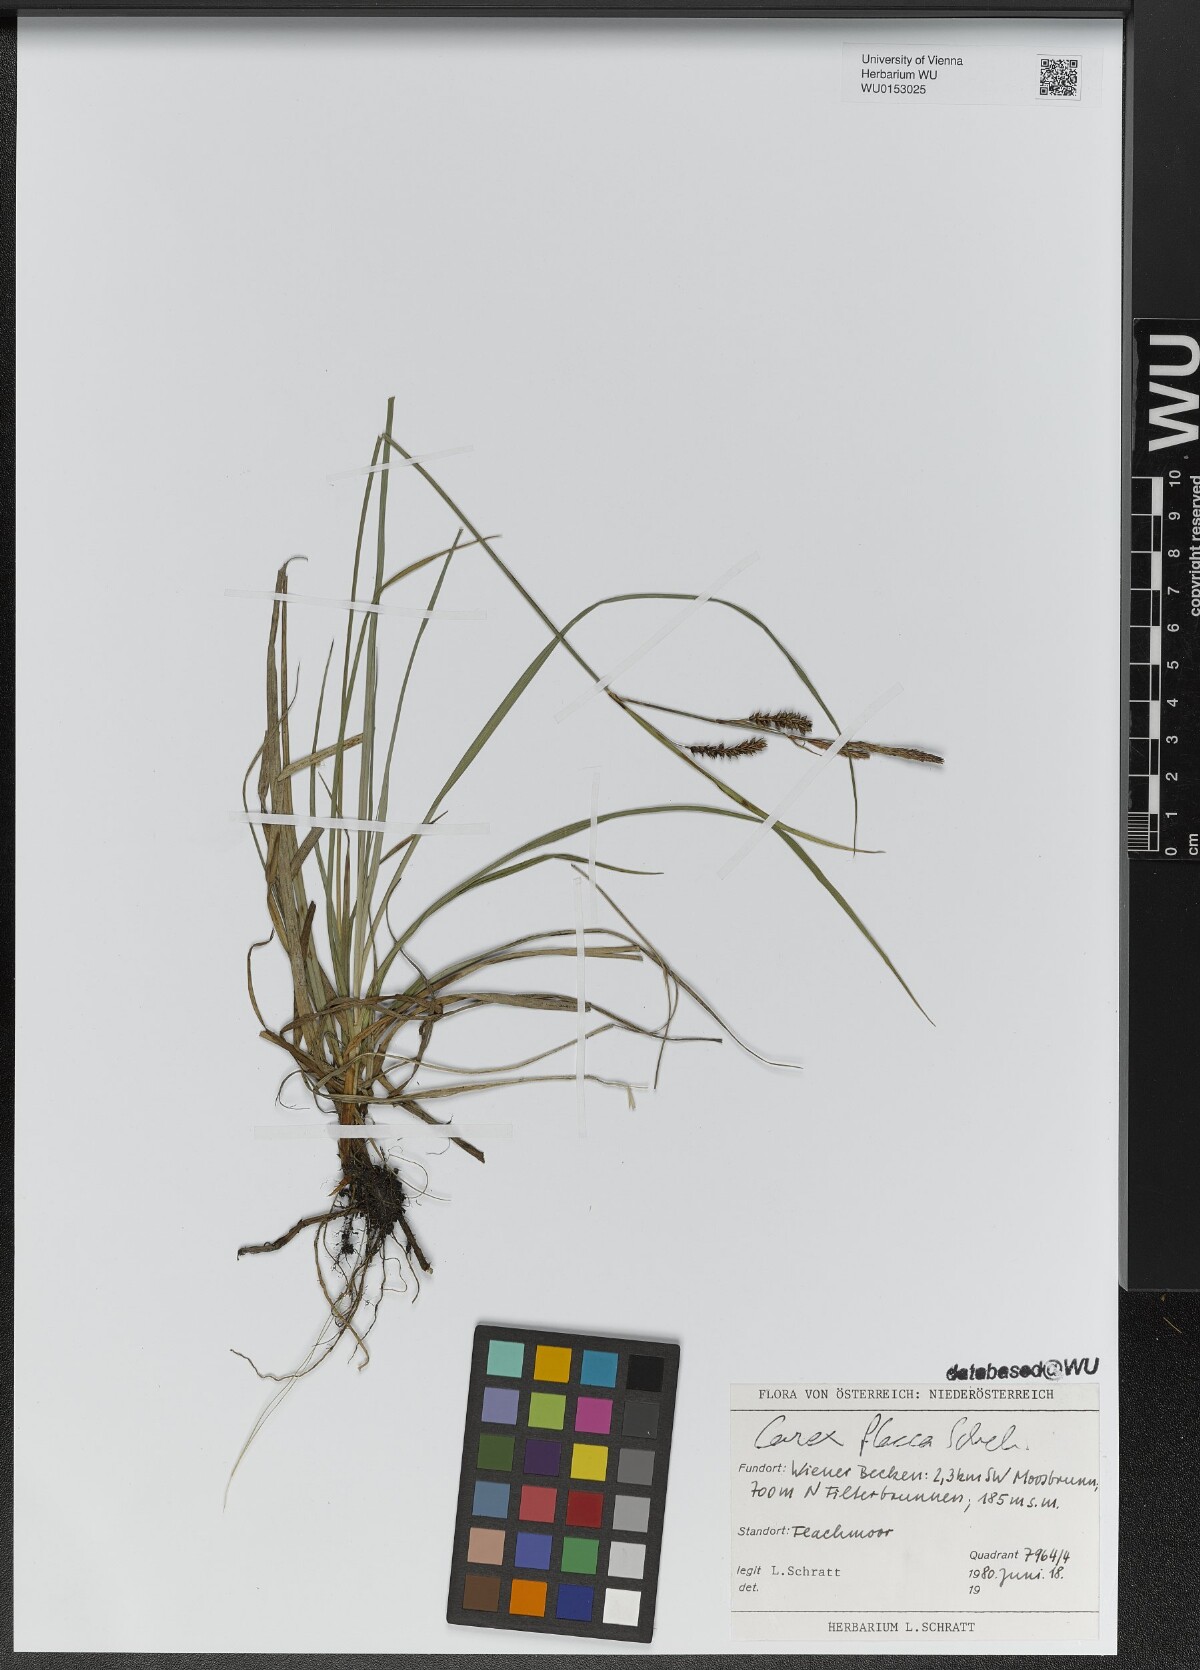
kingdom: Plantae
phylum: Tracheophyta
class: Liliopsida
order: Poales
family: Cyperaceae
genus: Carex
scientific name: Carex flacca
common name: Glaucous sedge
